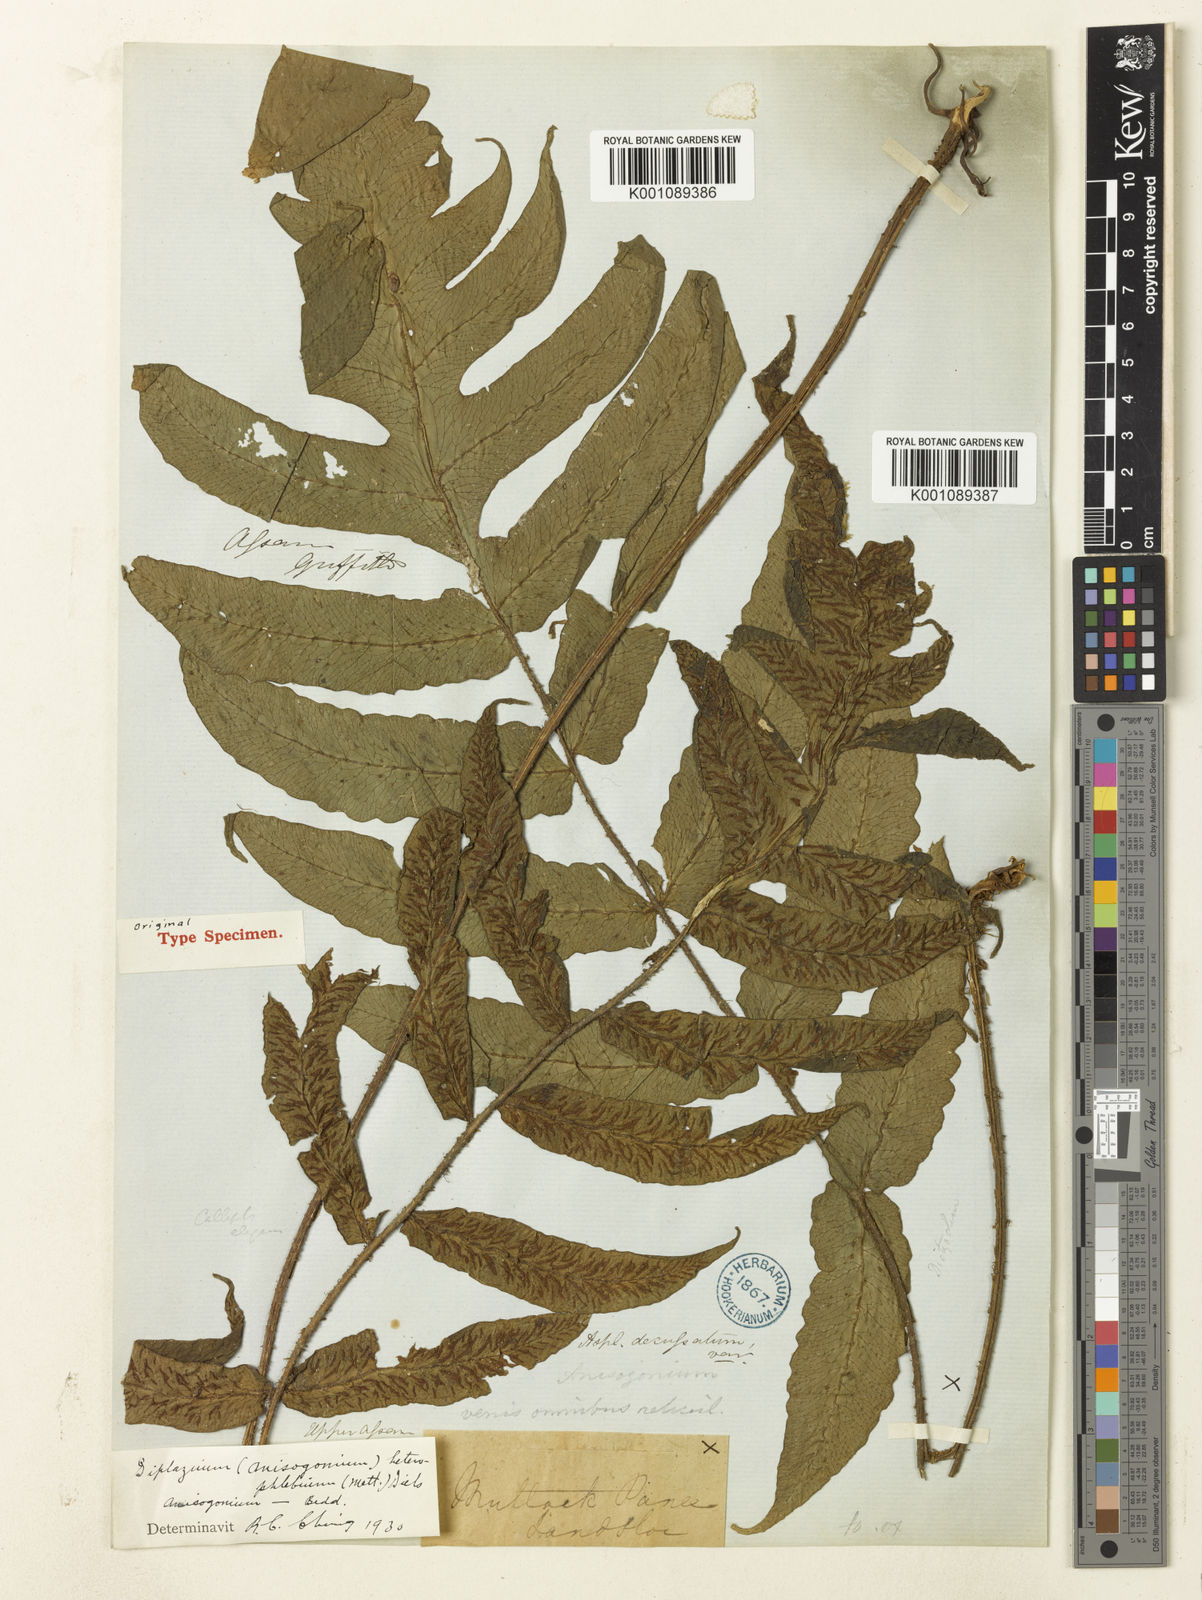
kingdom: Plantae
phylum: Tracheophyta
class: Polypodiopsida
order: Polypodiales
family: Athyriaceae
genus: Deparia
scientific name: Deparia heterophlebia
